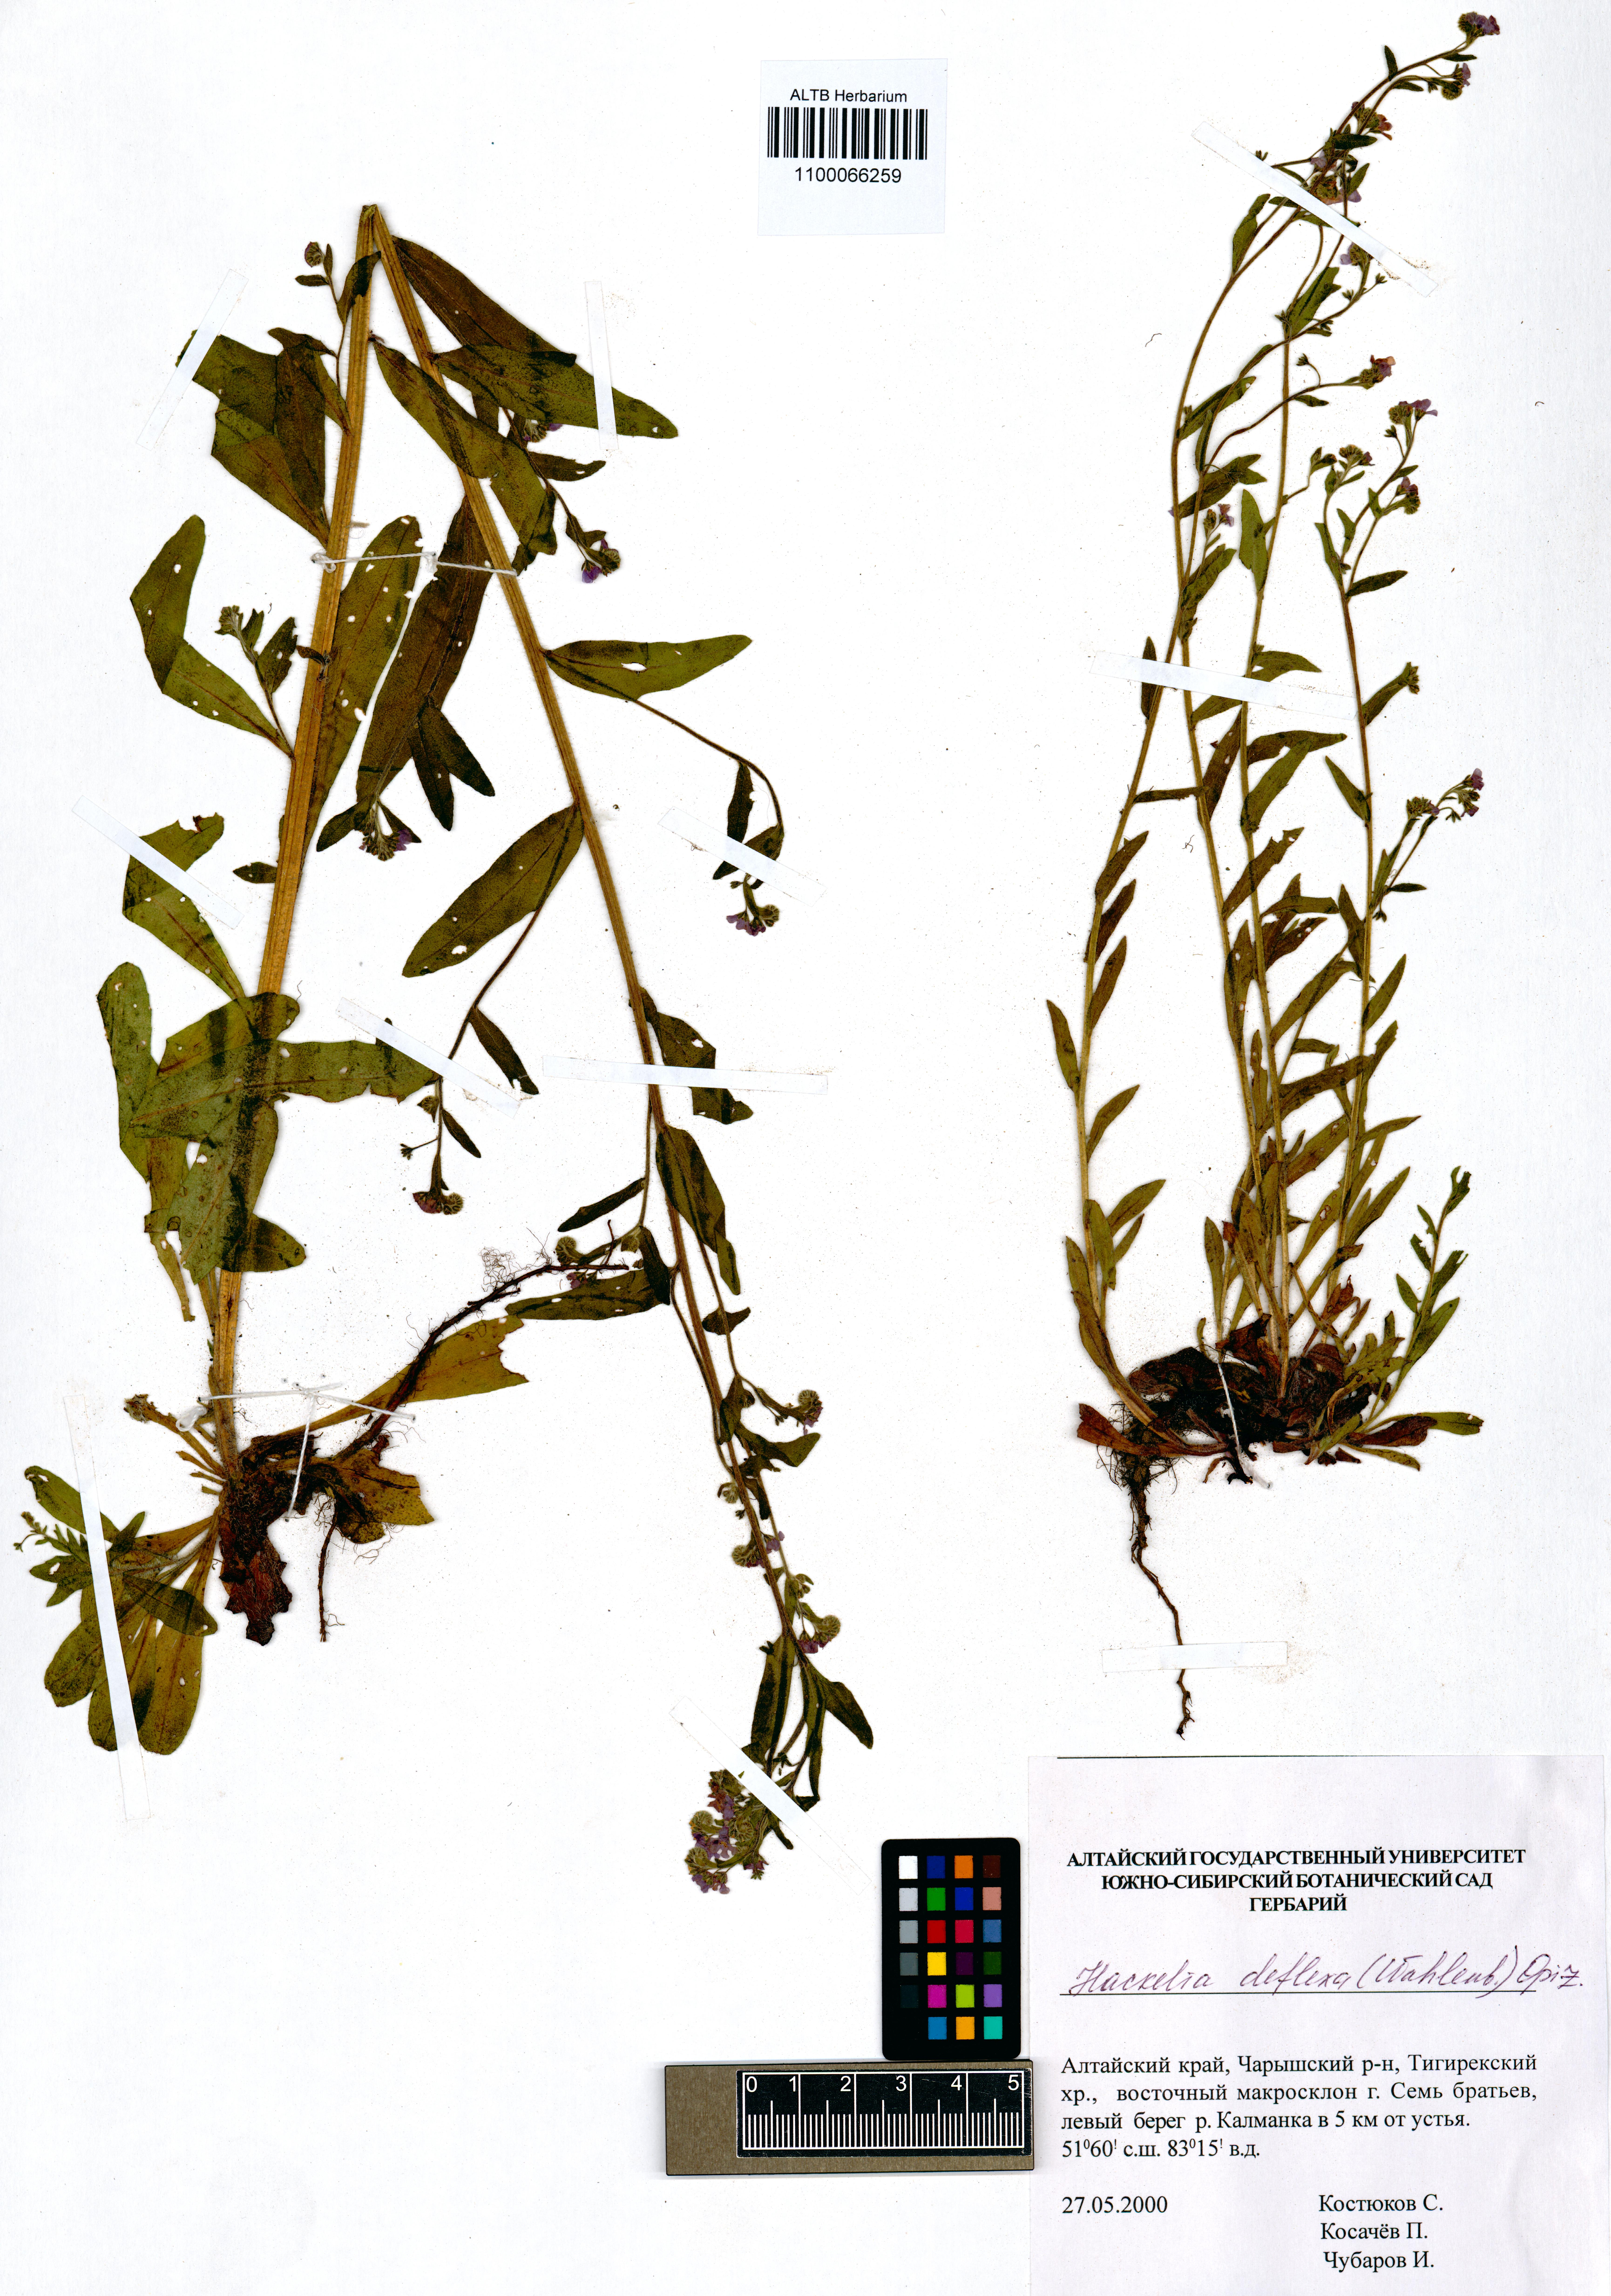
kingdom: Plantae
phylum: Tracheophyta
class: Magnoliopsida
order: Boraginales
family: Boraginaceae
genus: Hackelia
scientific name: Hackelia deflexa
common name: Nodding stickseed
